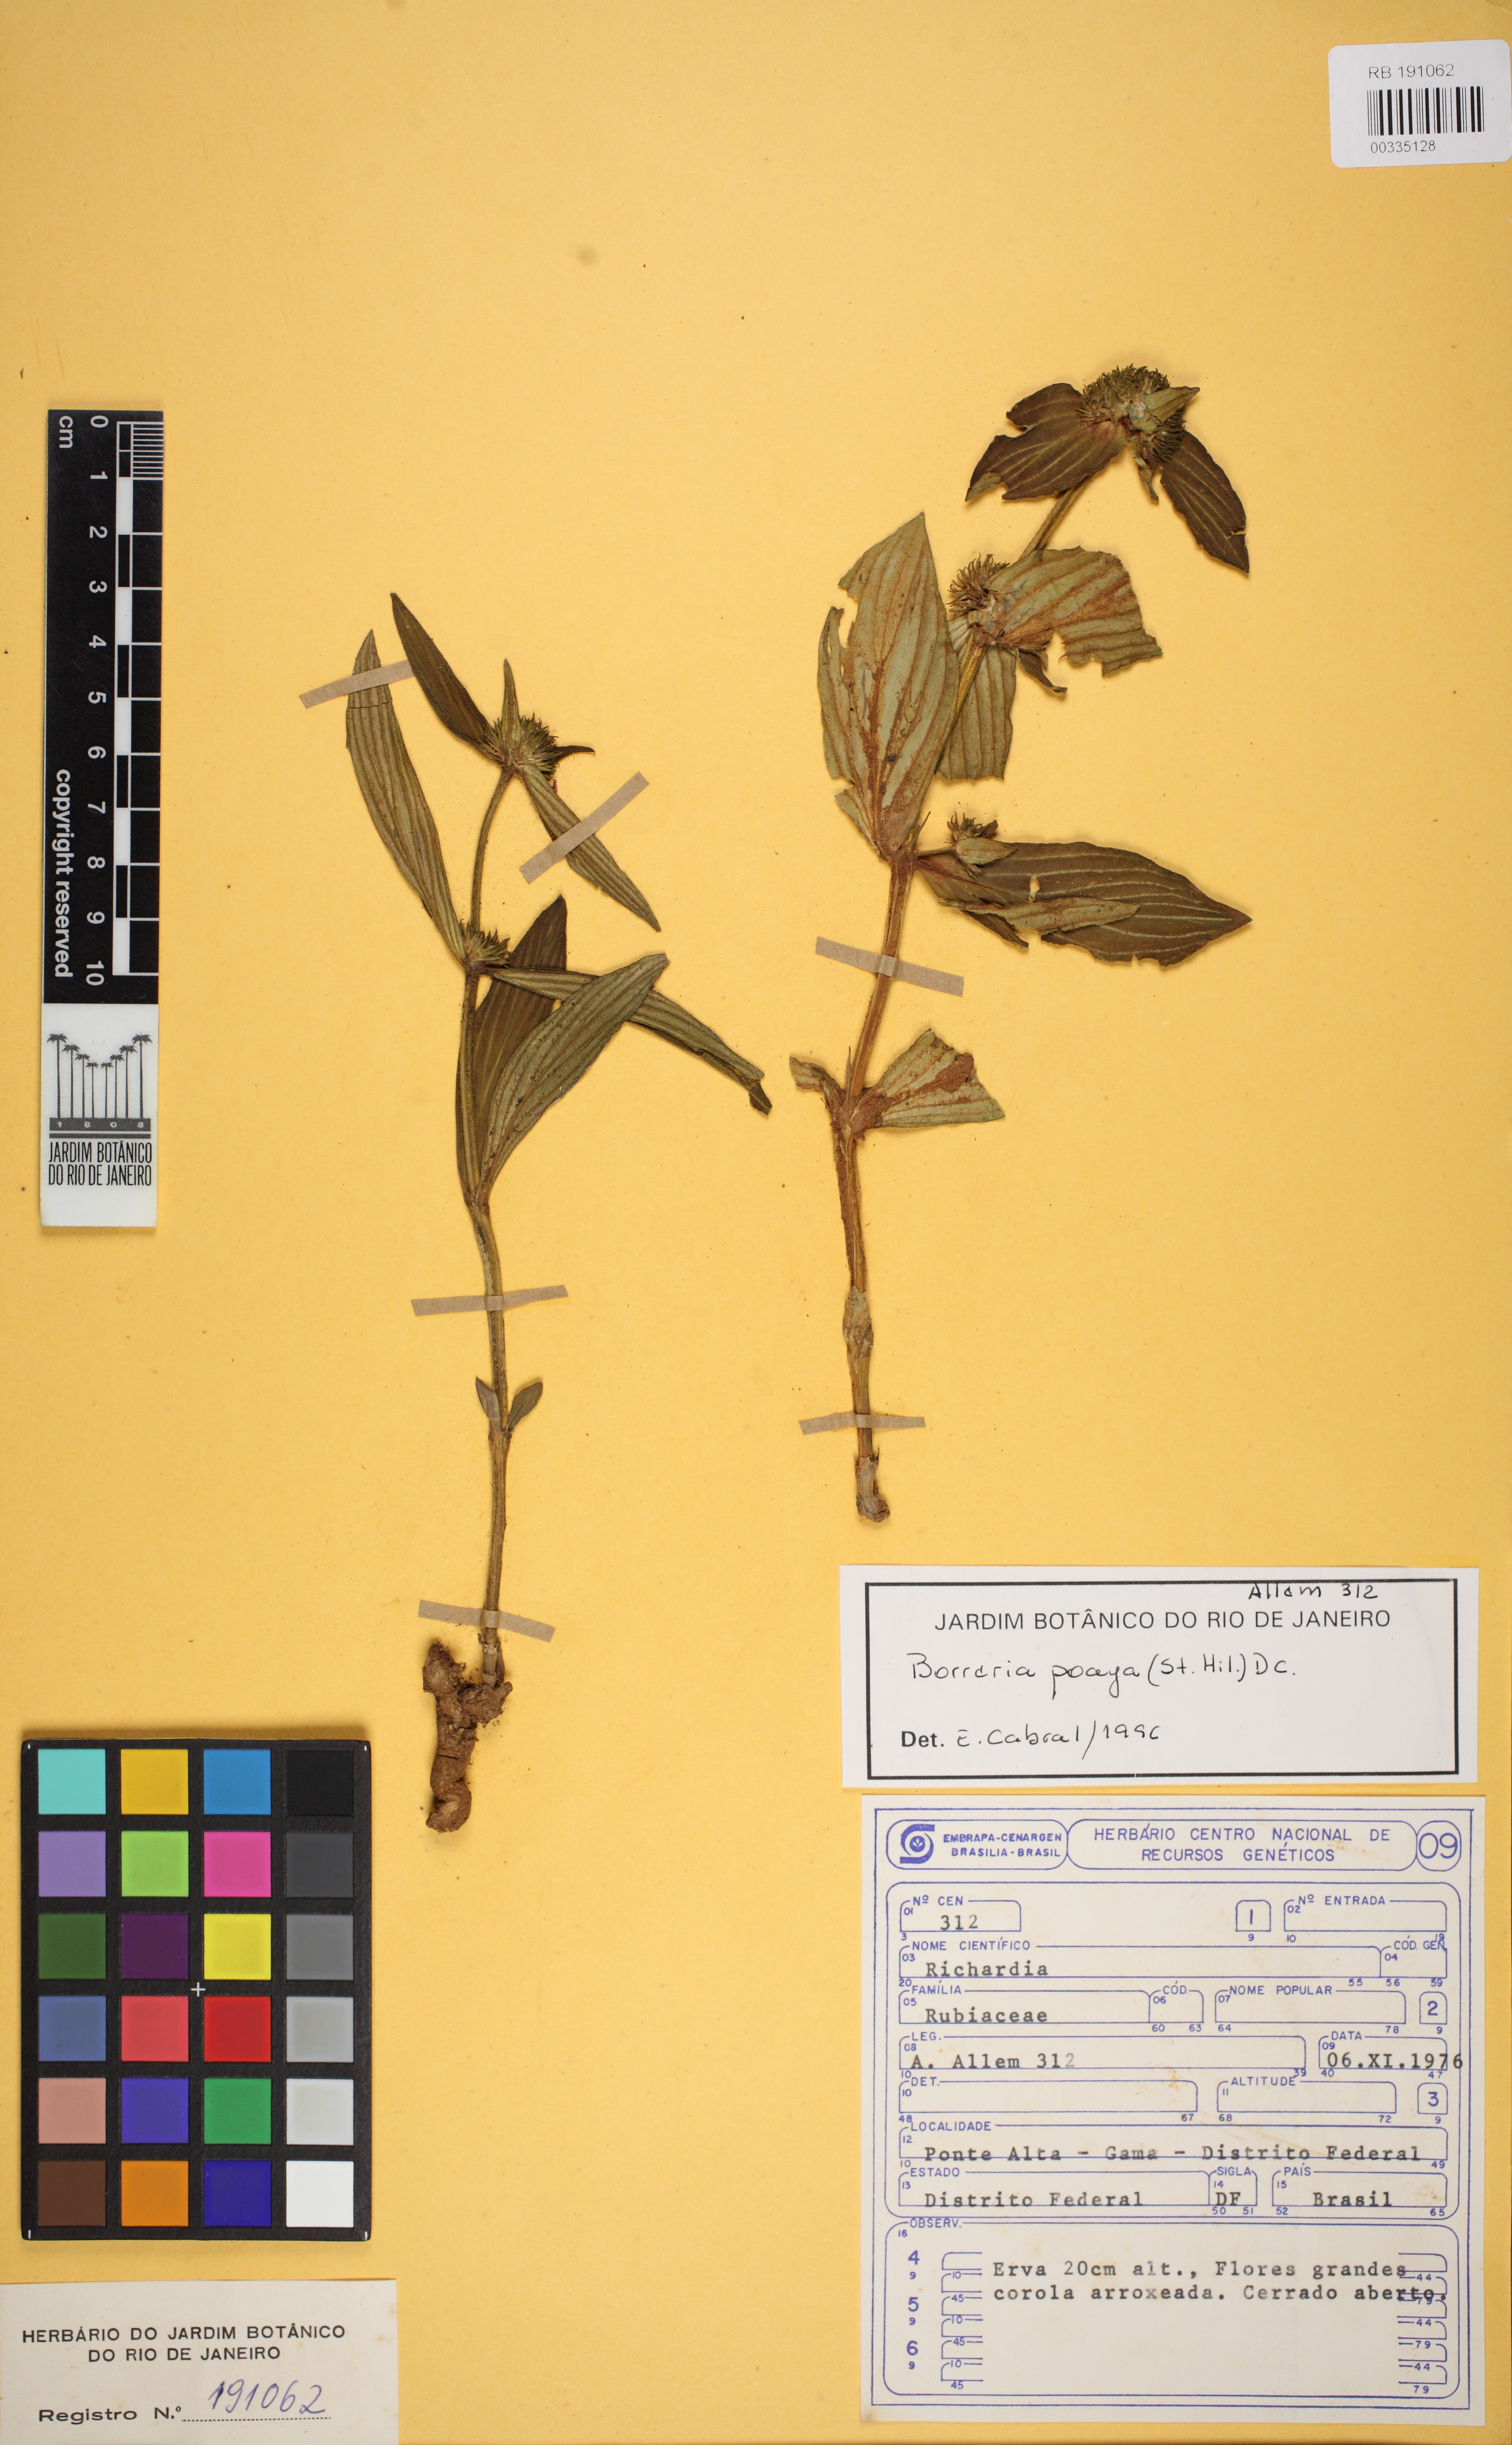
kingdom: Plantae
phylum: Tracheophyta
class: Magnoliopsida
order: Gentianales
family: Rubiaceae
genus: Spermacoce
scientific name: Spermacoce poaya
